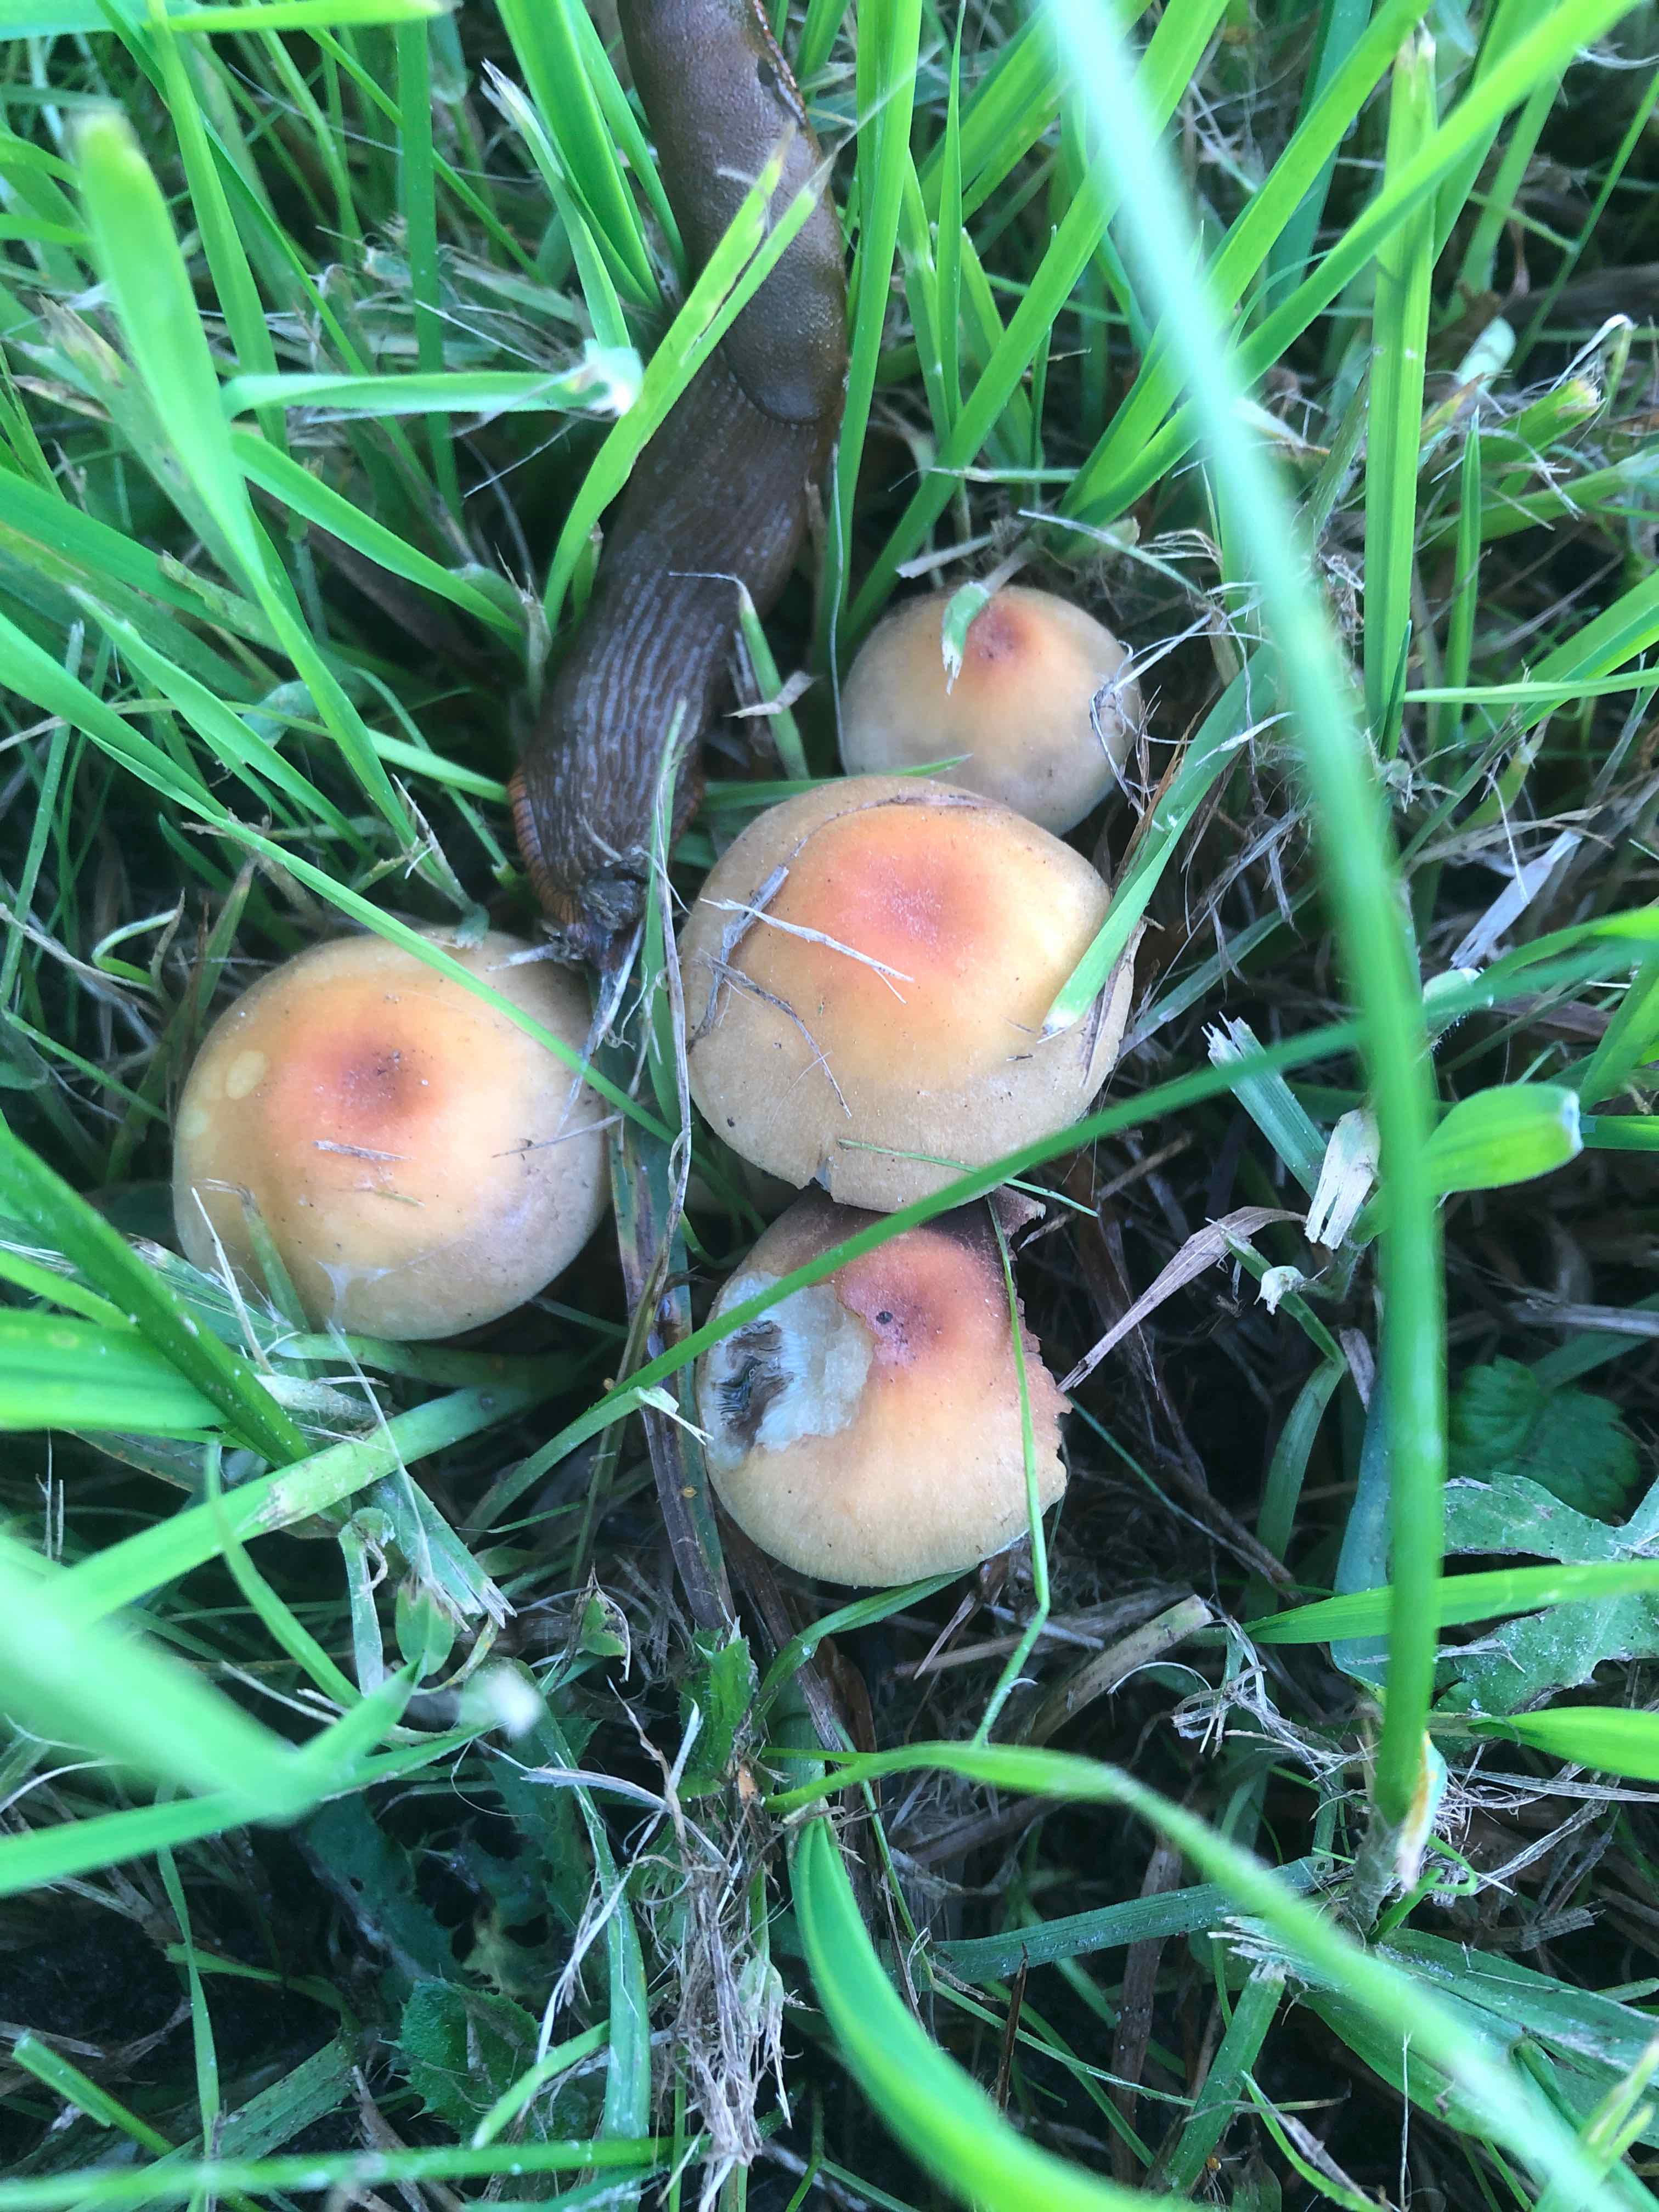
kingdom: Fungi
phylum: Basidiomycota
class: Agaricomycetes
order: Agaricales
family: Strophariaceae
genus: Hypholoma
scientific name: Hypholoma fasciculare
